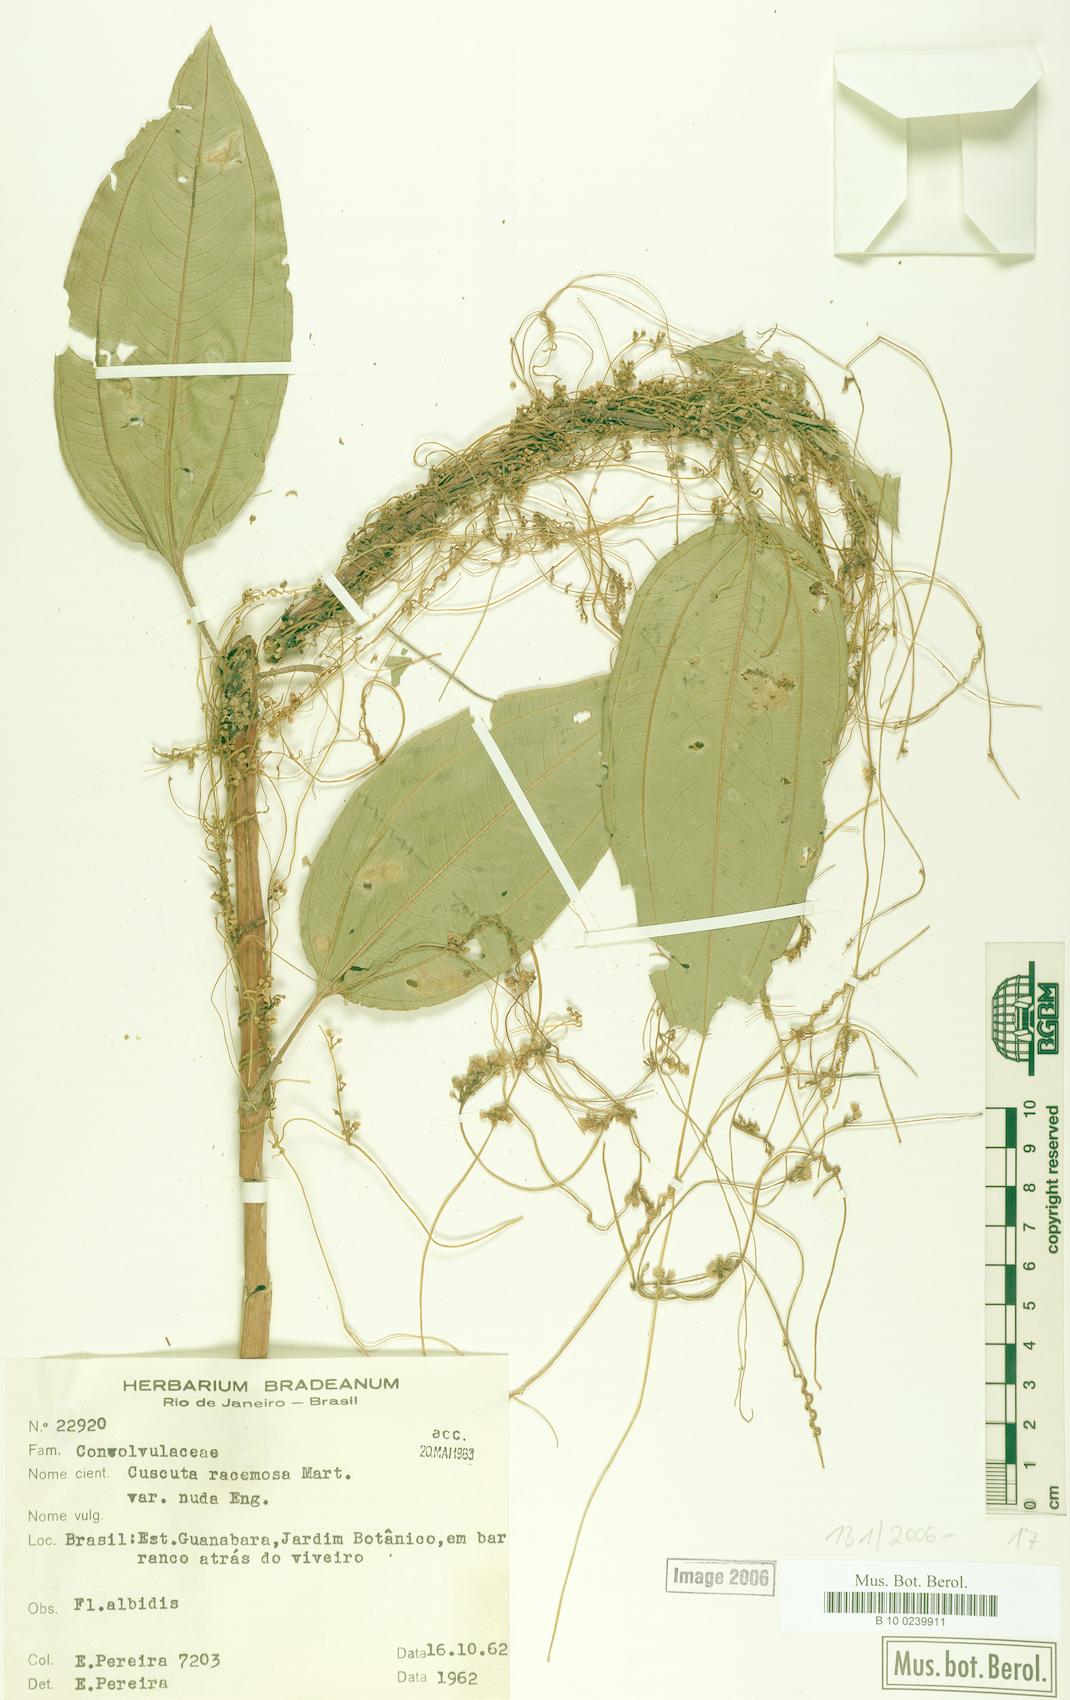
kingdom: Plantae
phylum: Tracheophyta
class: Magnoliopsida
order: Solanales
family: Convolvulaceae
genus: Cuscuta
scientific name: Cuscuta racemosa
